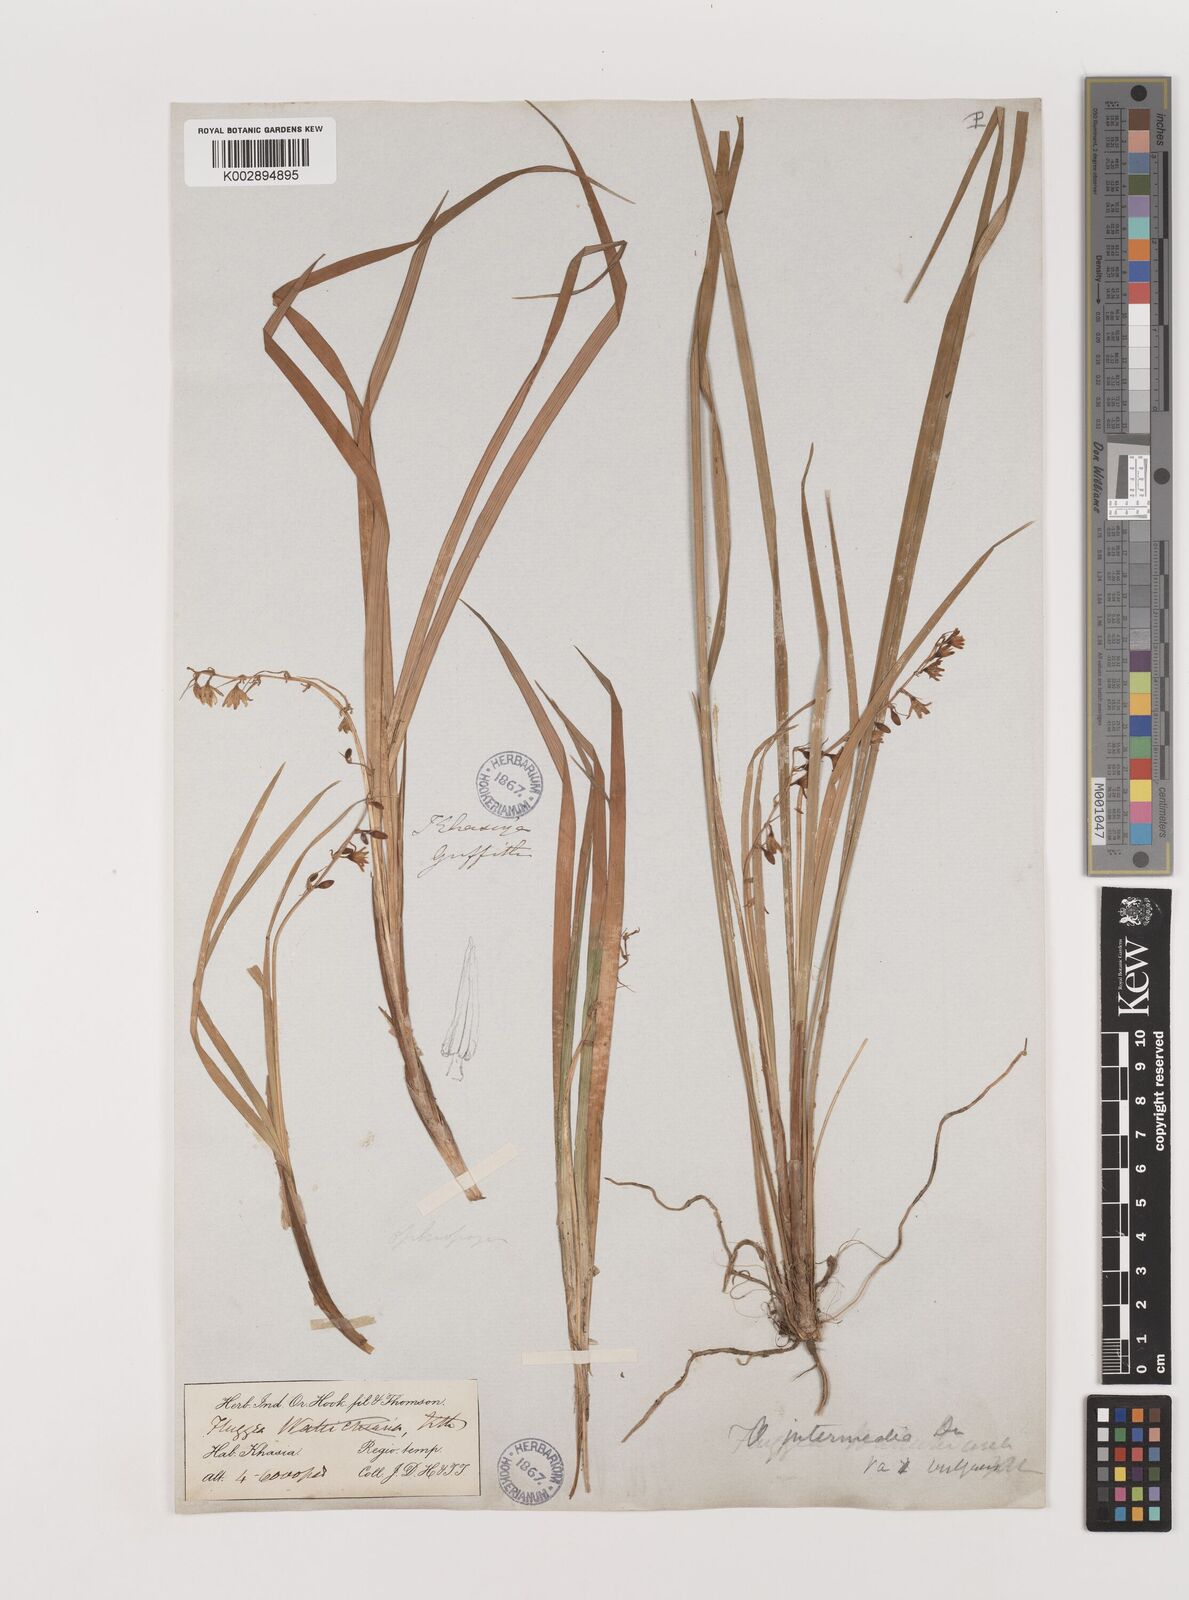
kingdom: Plantae
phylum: Tracheophyta
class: Liliopsida
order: Asparagales
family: Asparagaceae
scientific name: Asparagaceae
